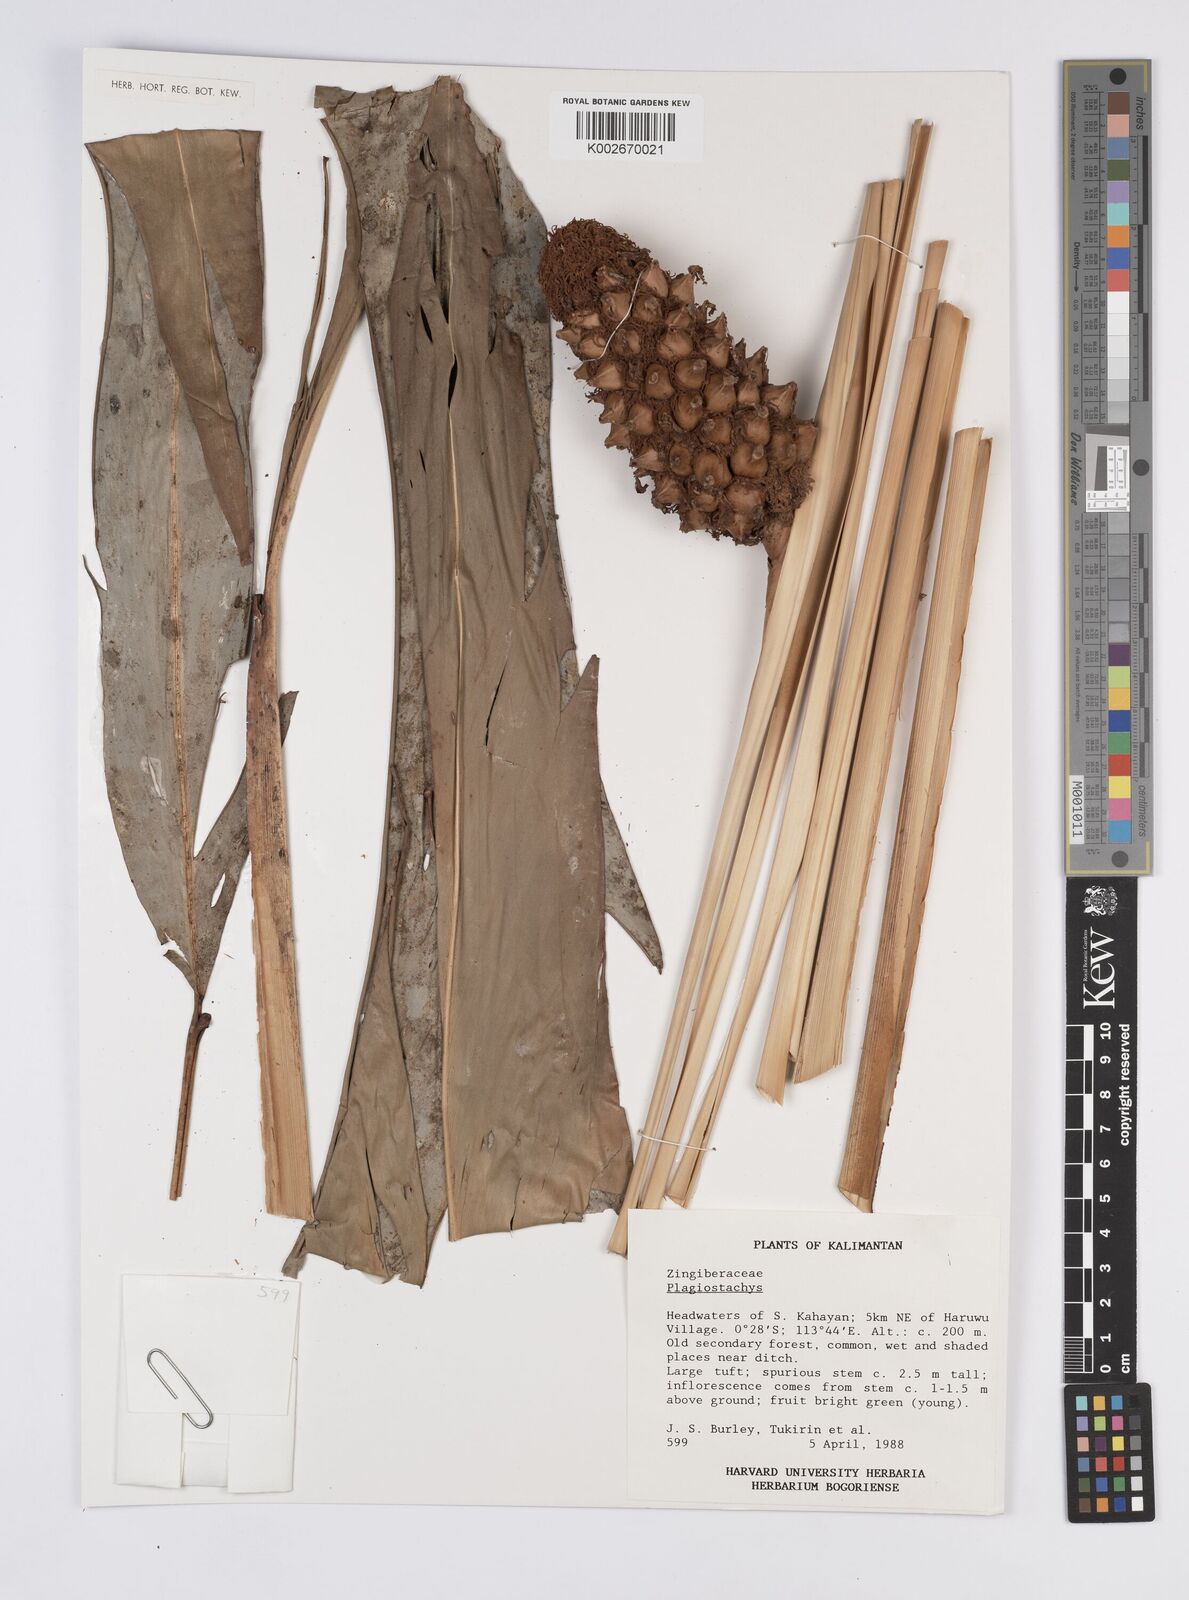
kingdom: Plantae
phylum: Tracheophyta
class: Liliopsida
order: Zingiberales
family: Zingiberaceae
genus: Plagiostachys
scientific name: Plagiostachys
